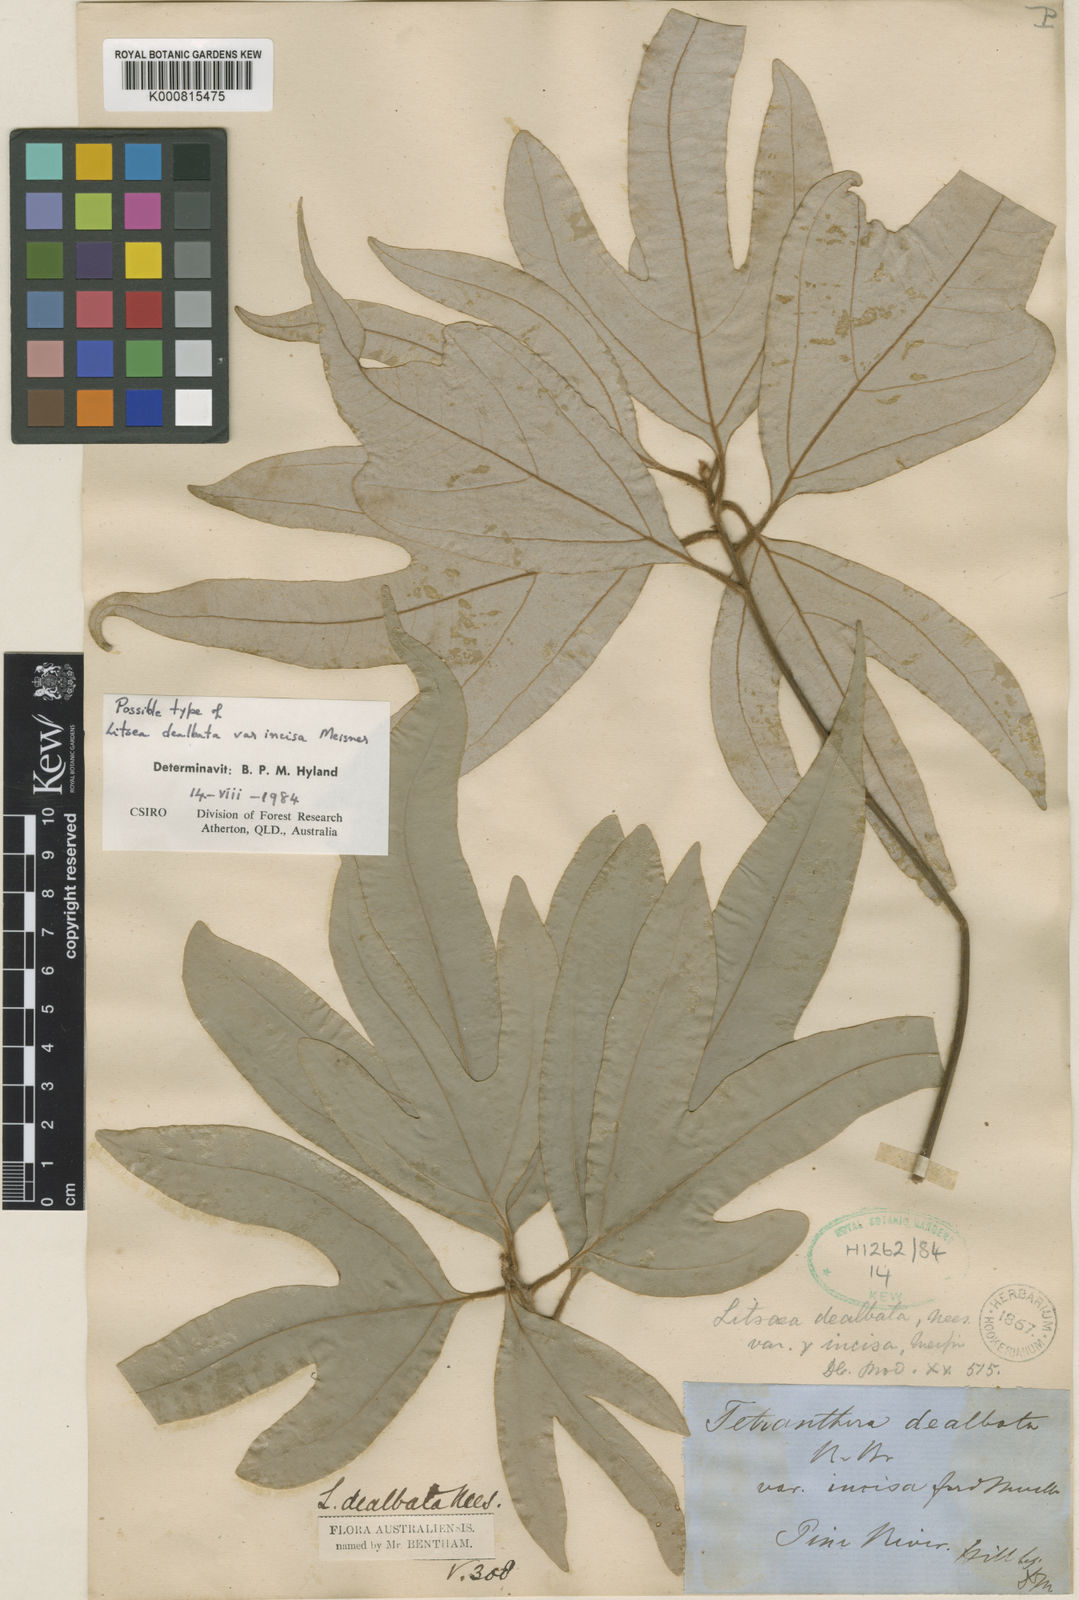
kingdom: Plantae
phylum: Tracheophyta
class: Magnoliopsida
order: Laurales
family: Lauraceae
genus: Neolitsea
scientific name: Neolitsea dealbata
